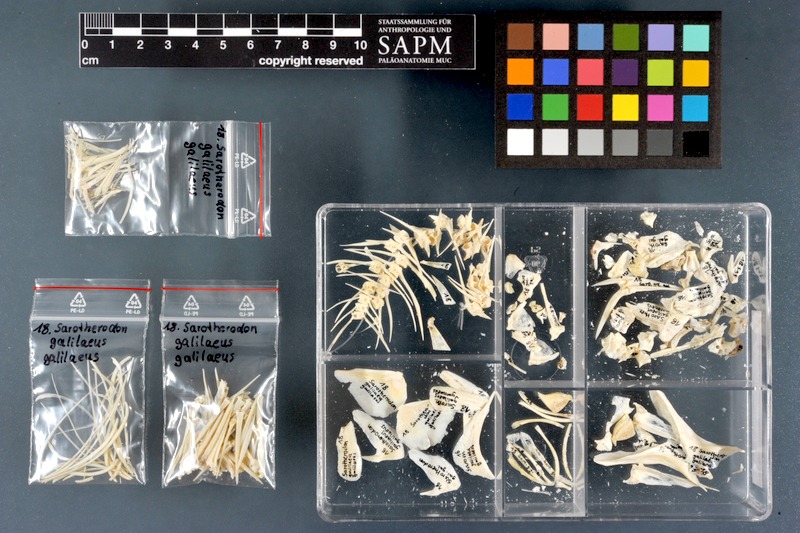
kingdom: Animalia
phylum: Chordata
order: Perciformes
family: Cichlidae
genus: Sarotherodon
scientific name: Sarotherodon galilaeus
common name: Mango tilapia
